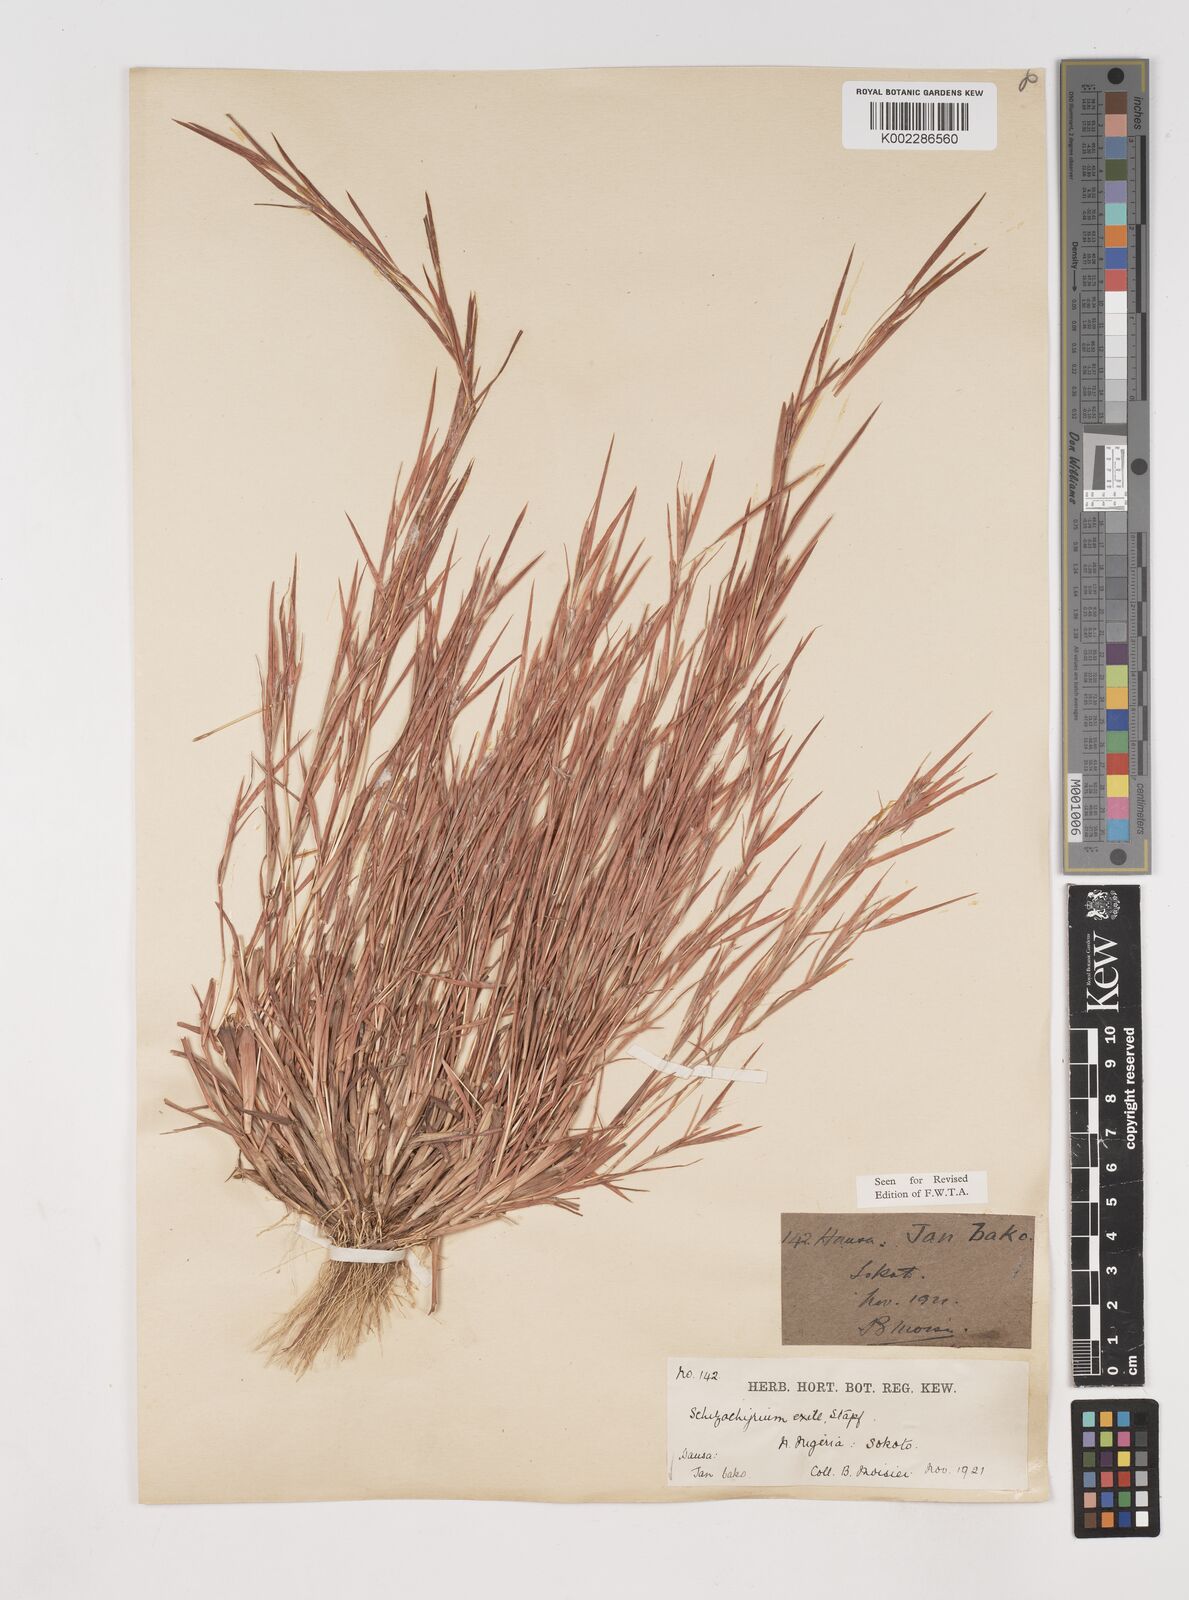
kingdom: Plantae
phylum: Tracheophyta
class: Liliopsida
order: Poales
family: Poaceae
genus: Schizachyrium
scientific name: Schizachyrium exile
